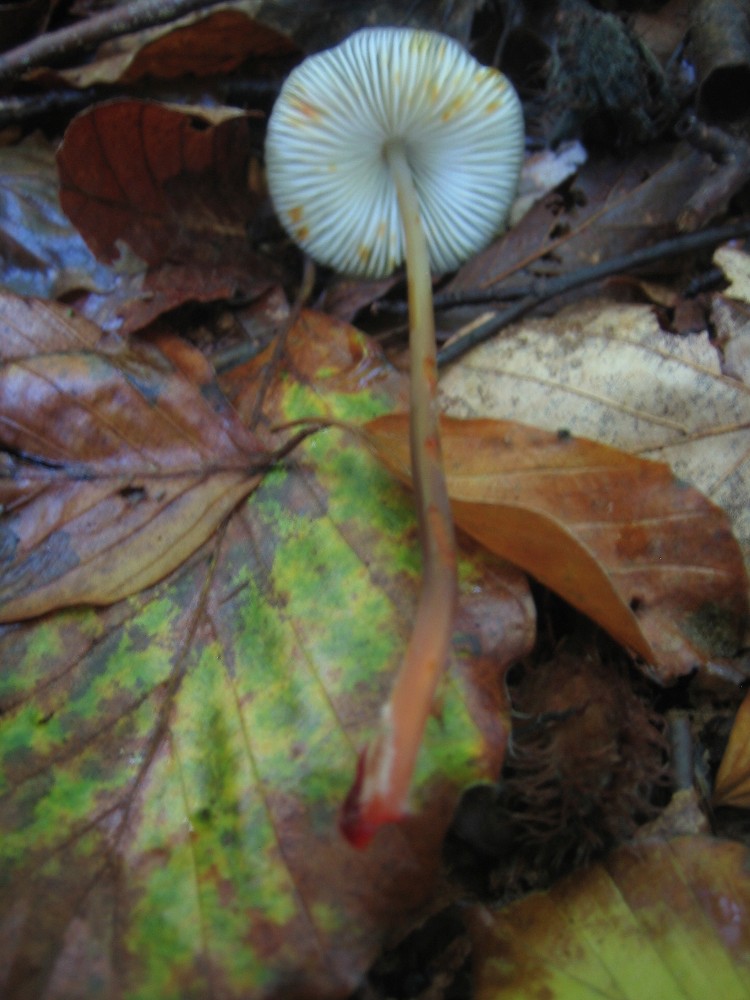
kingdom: Fungi
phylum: Basidiomycota
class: Agaricomycetes
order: Agaricales
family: Mycenaceae
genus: Mycena
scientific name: Mycena crocata
